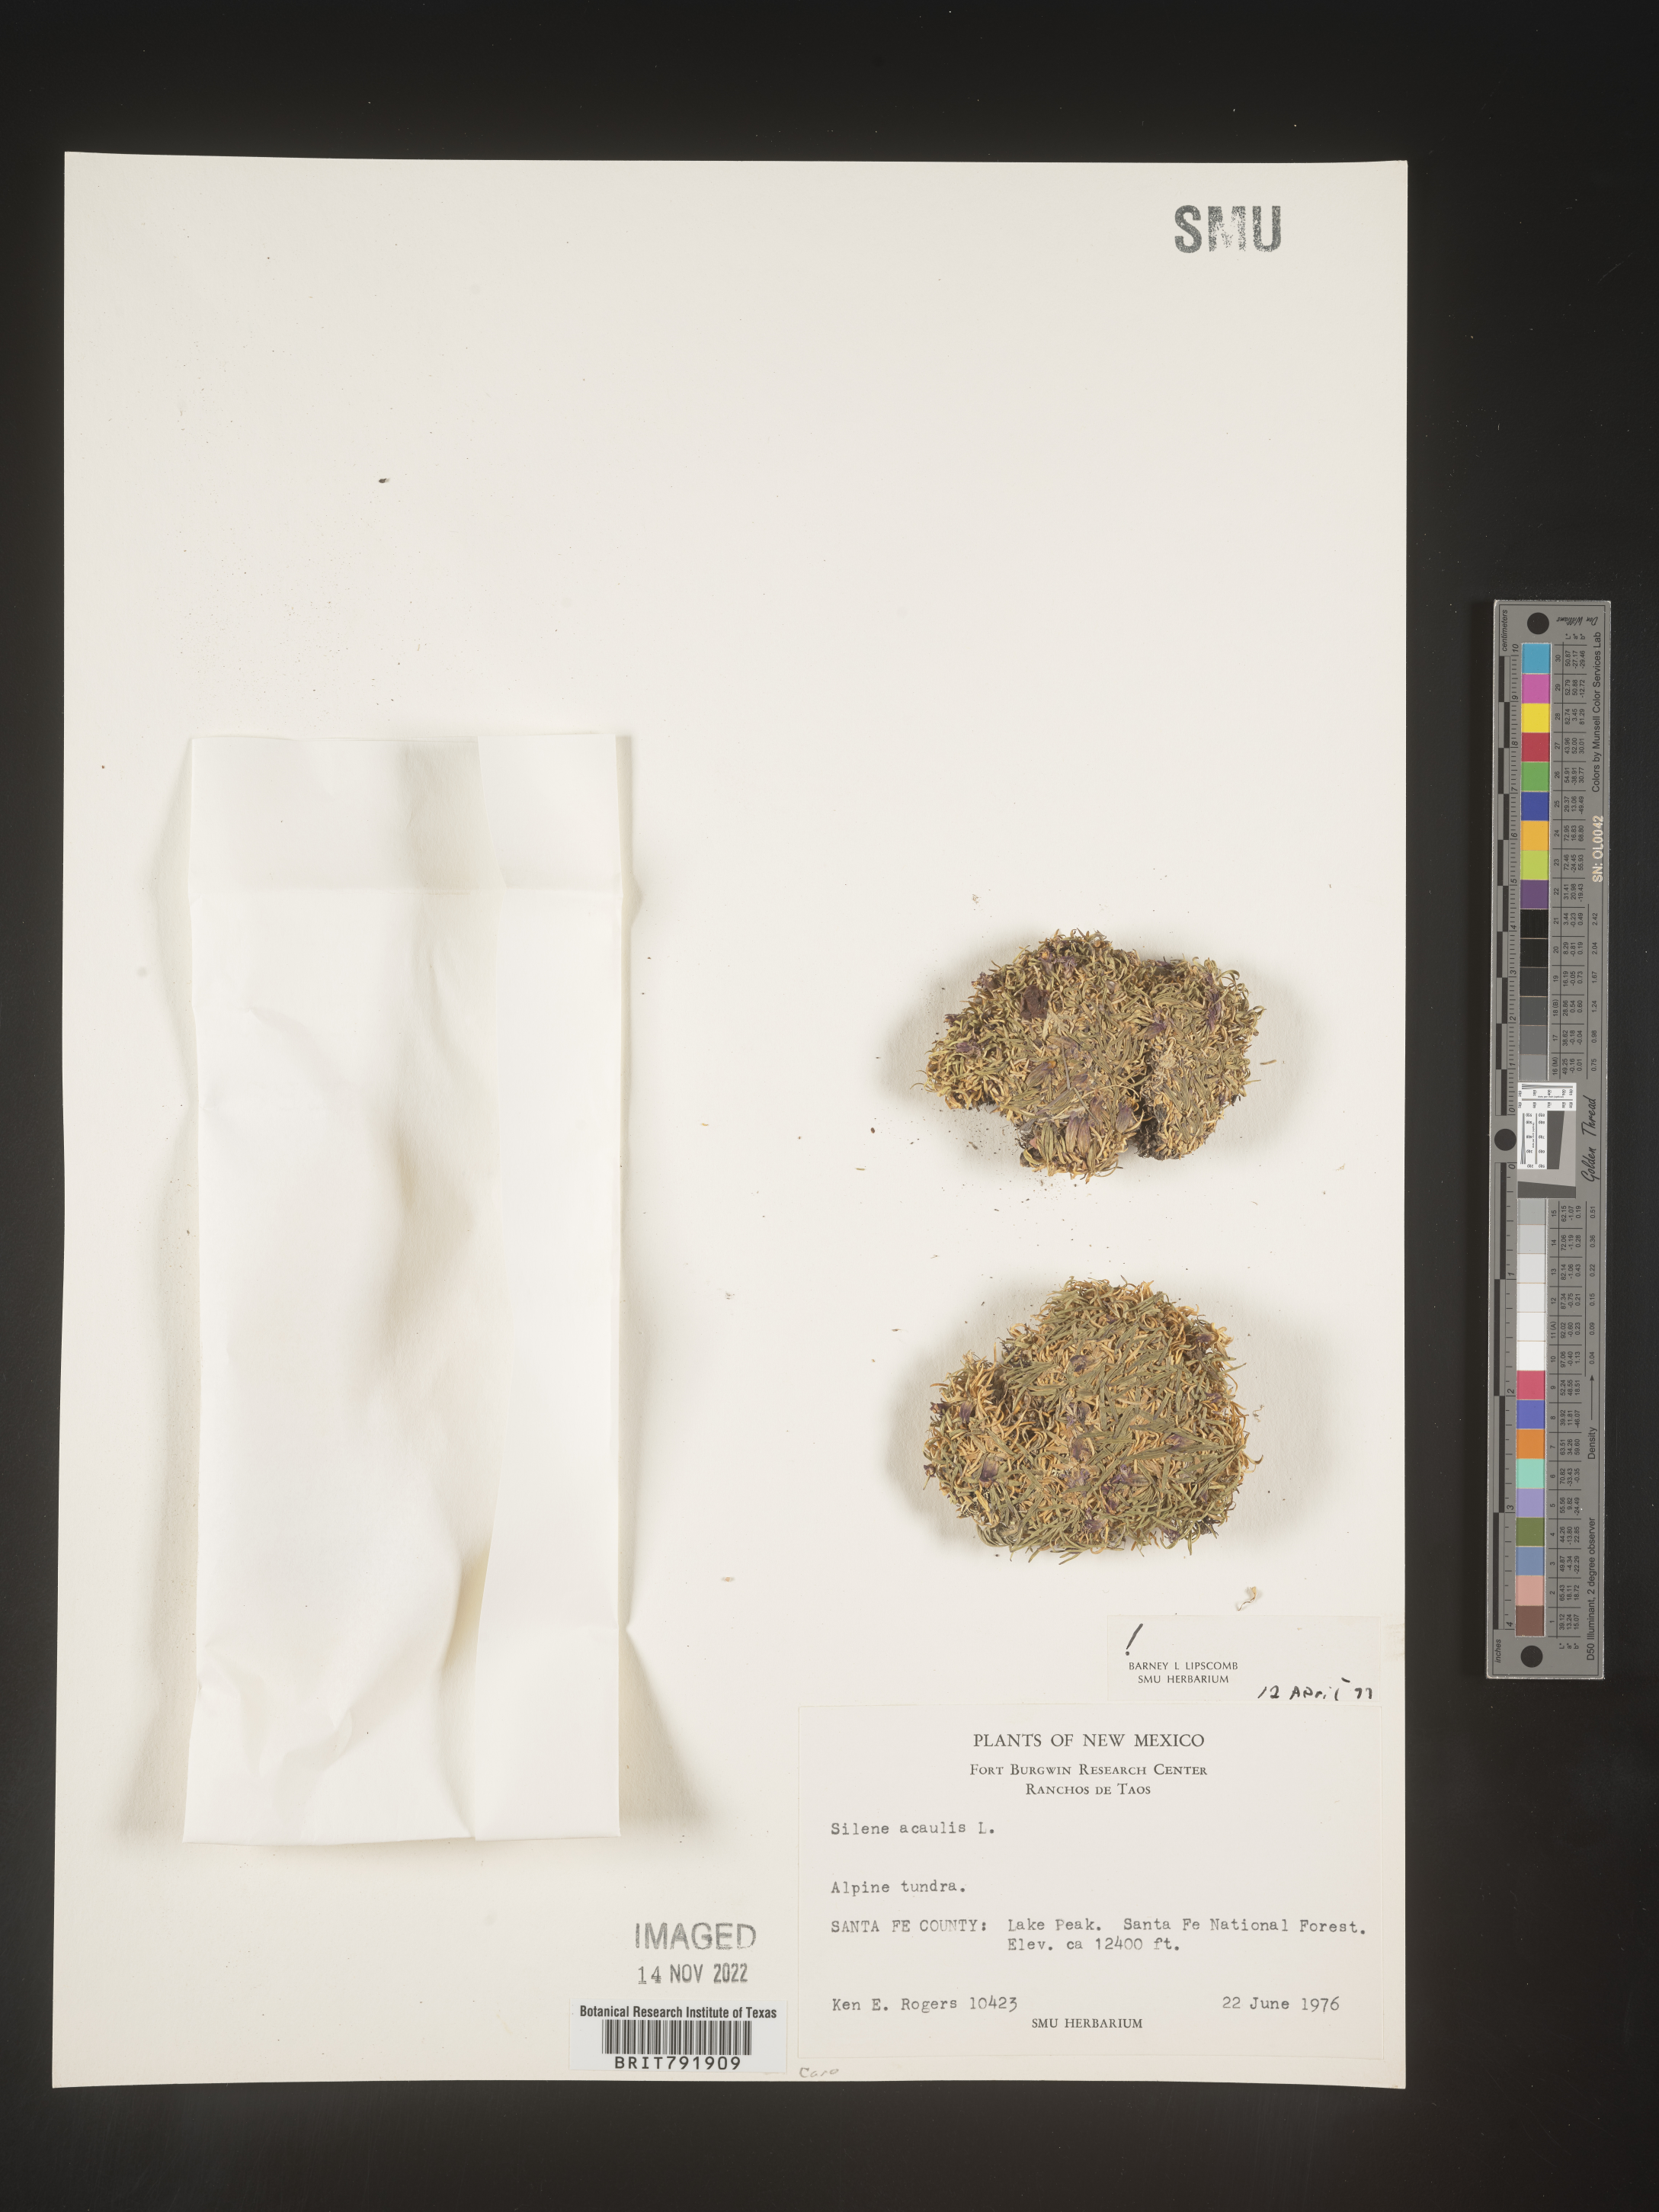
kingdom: Plantae
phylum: Tracheophyta
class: Magnoliopsida
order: Caryophyllales
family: Caryophyllaceae
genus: Silene
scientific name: Silene acaulis
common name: Moss campion
